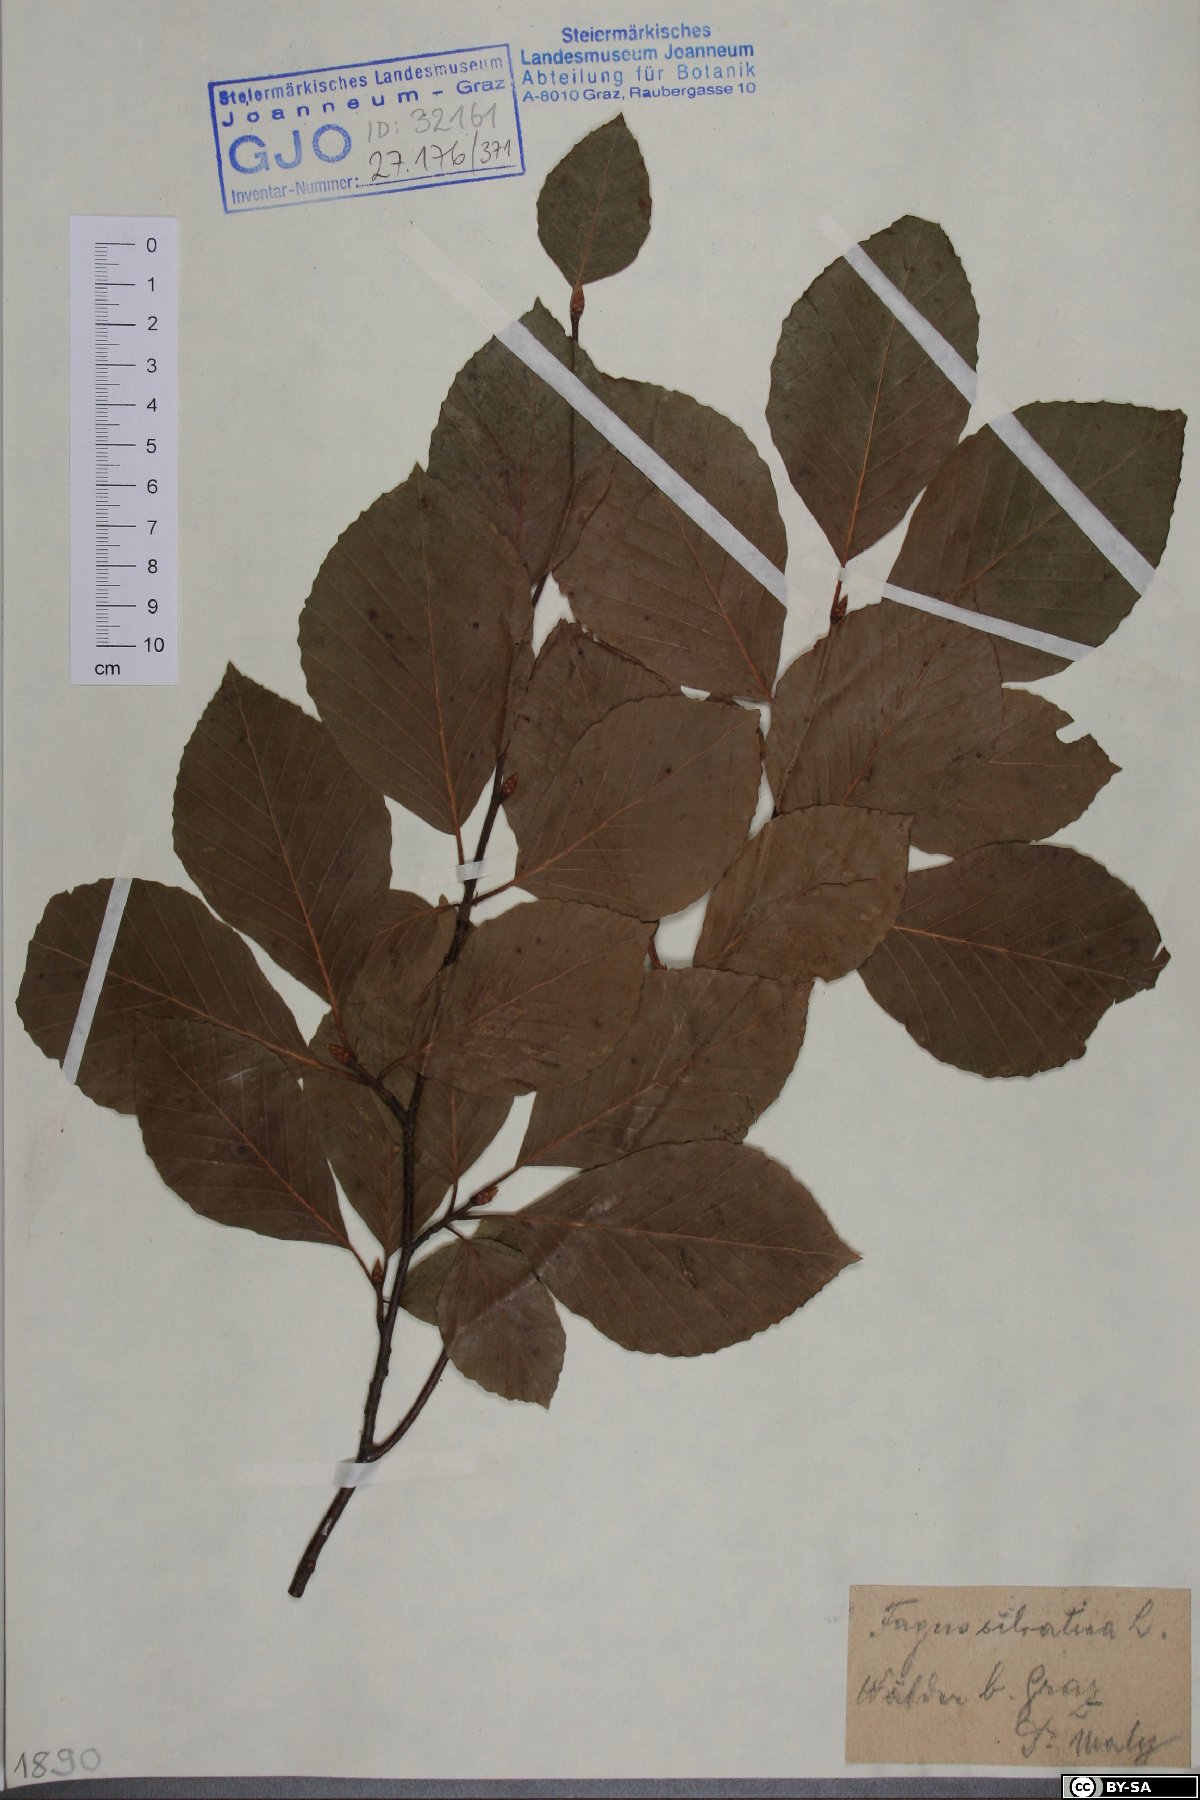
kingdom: Plantae
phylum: Tracheophyta
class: Magnoliopsida
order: Fagales
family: Fagaceae
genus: Fagus
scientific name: Fagus sylvatica
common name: Beech
